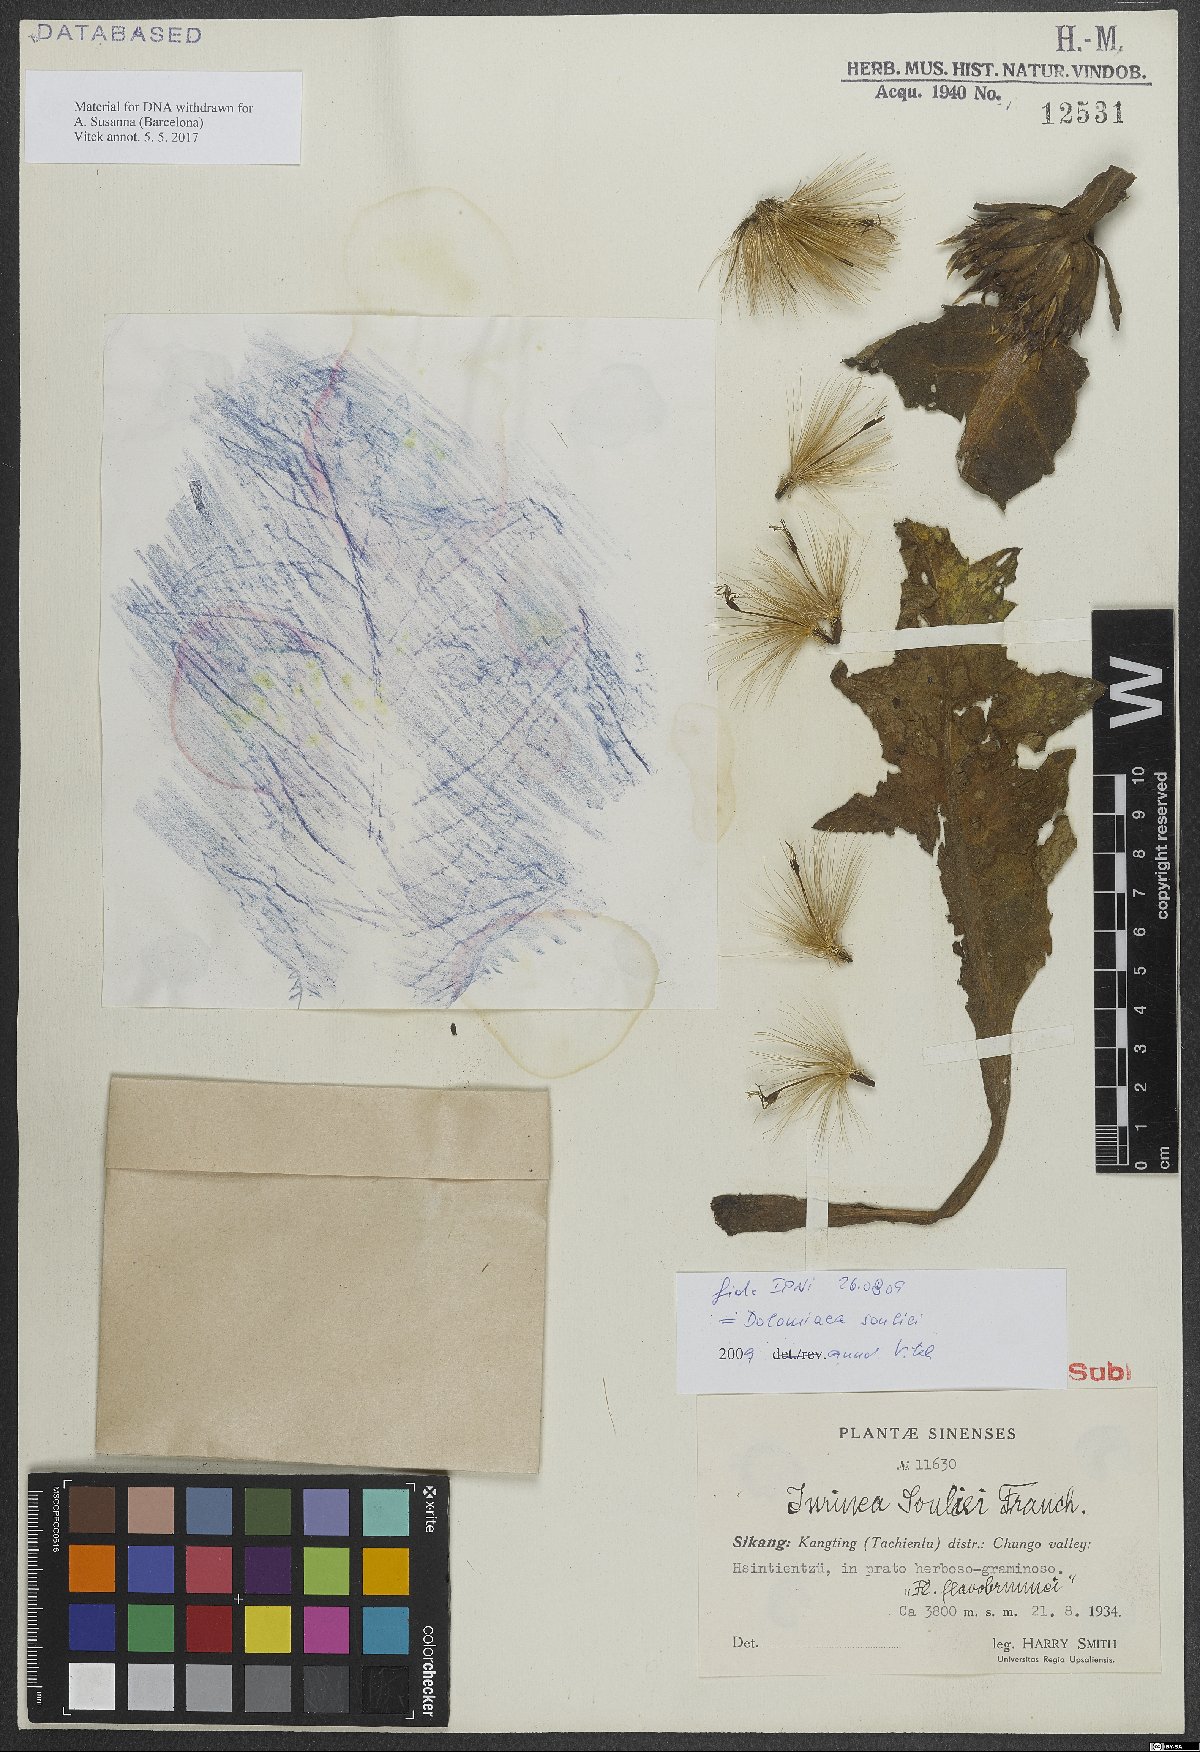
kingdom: Plantae
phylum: Tracheophyta
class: Magnoliopsida
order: Asterales
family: Asteraceae
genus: Dolomiaea
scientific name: Dolomiaea souliei
